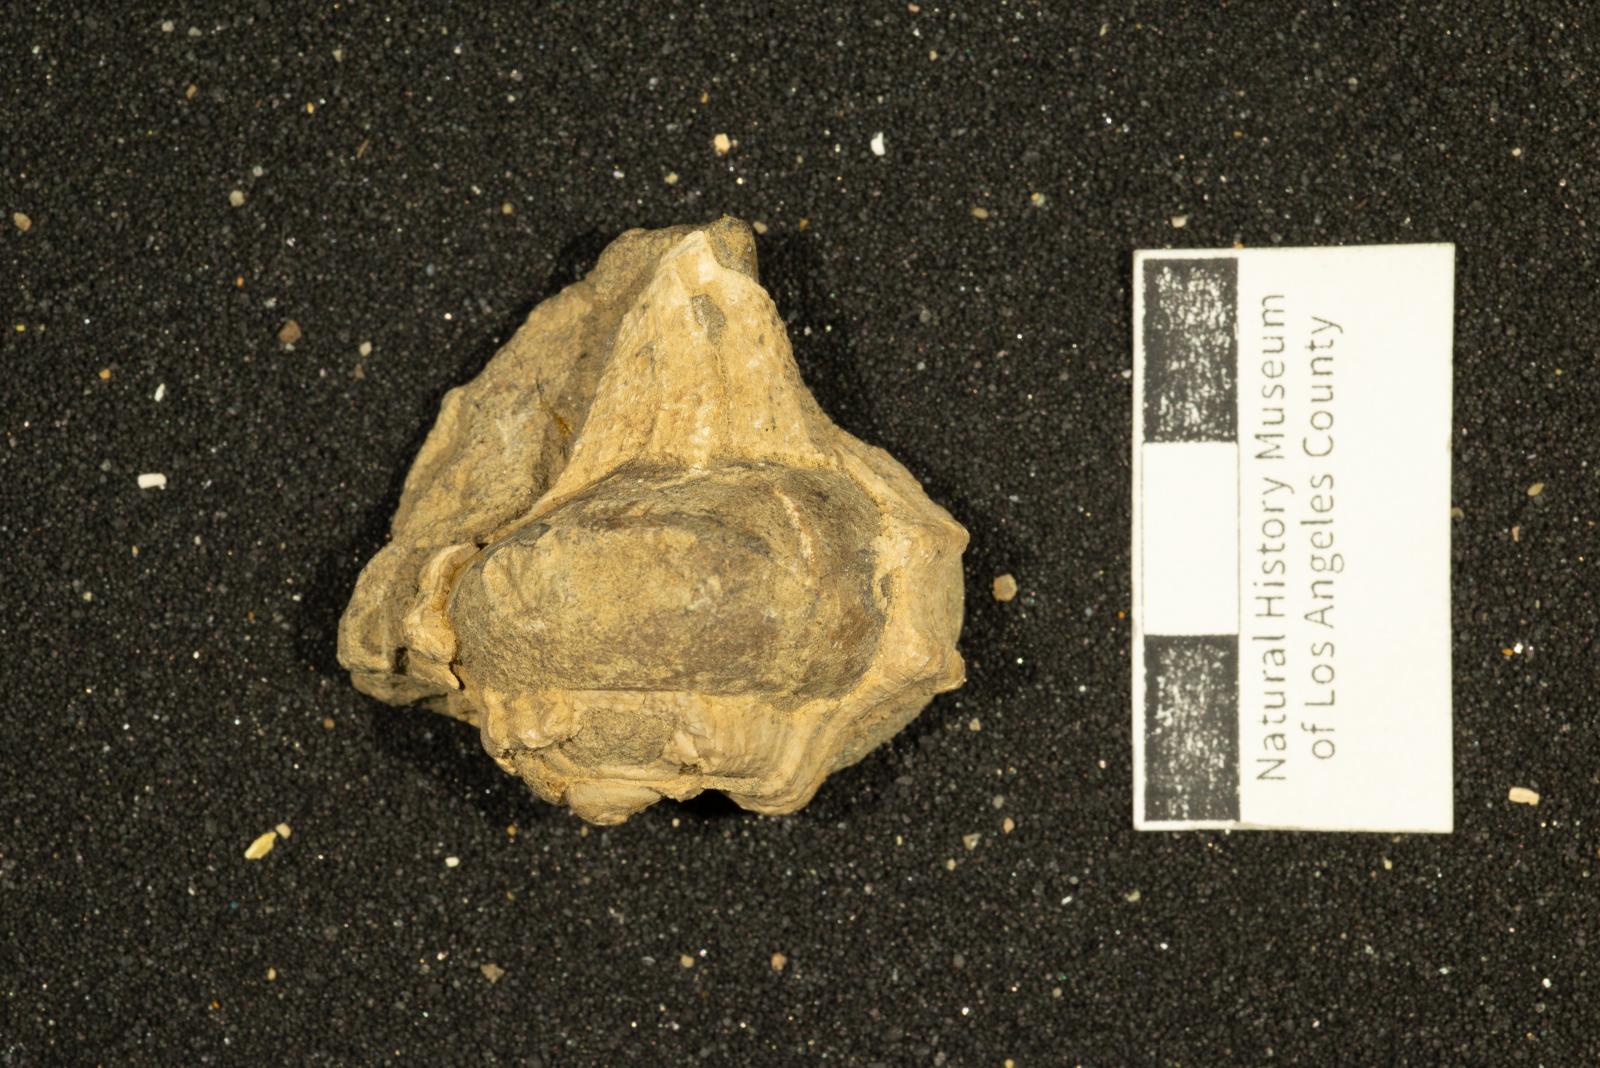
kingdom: Animalia
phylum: Mollusca
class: Gastropoda
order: Neogastropoda
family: Tudiclidae
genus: Rapopsis
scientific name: Rapopsis joseana
